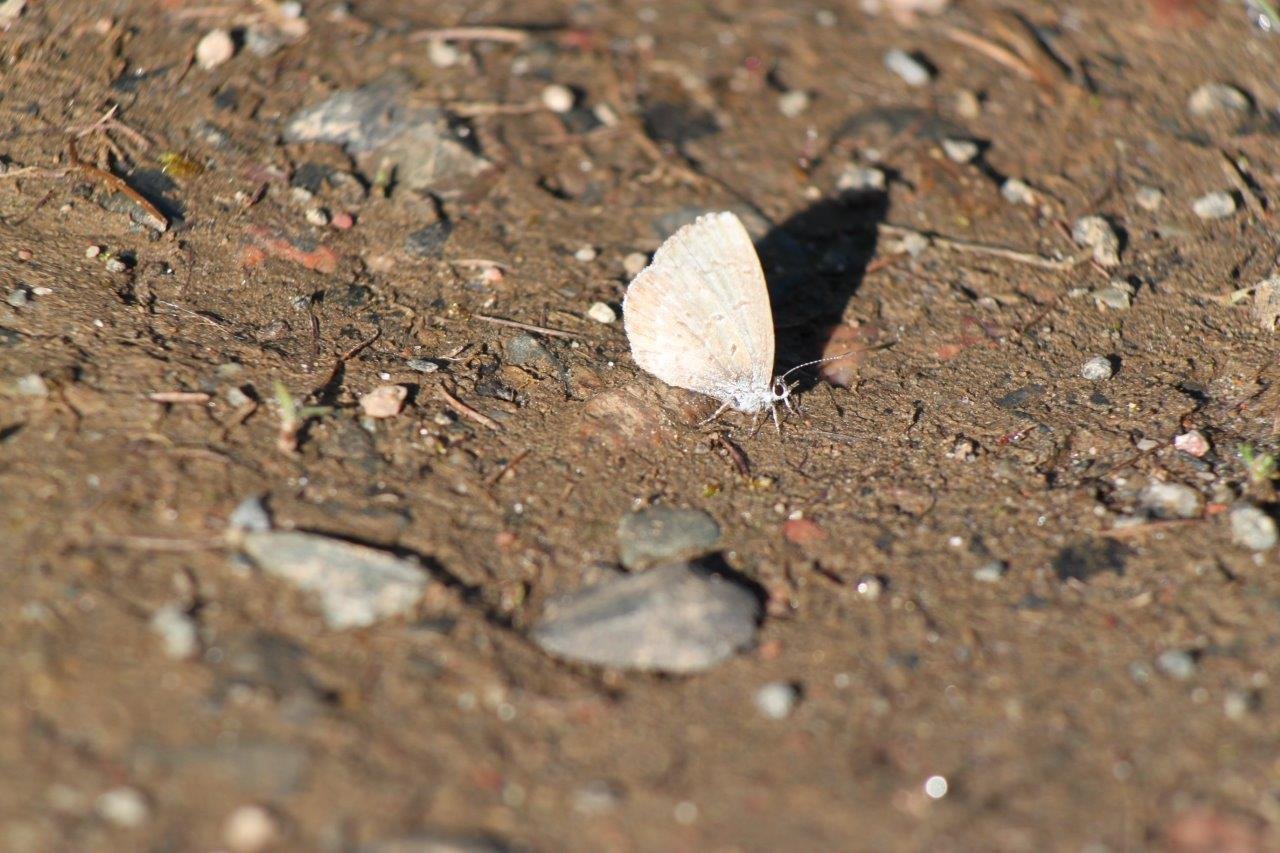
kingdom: Animalia
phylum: Arthropoda
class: Insecta
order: Lepidoptera
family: Lycaenidae
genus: Celastrina
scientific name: Celastrina lucia
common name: Northern Spring Azure
